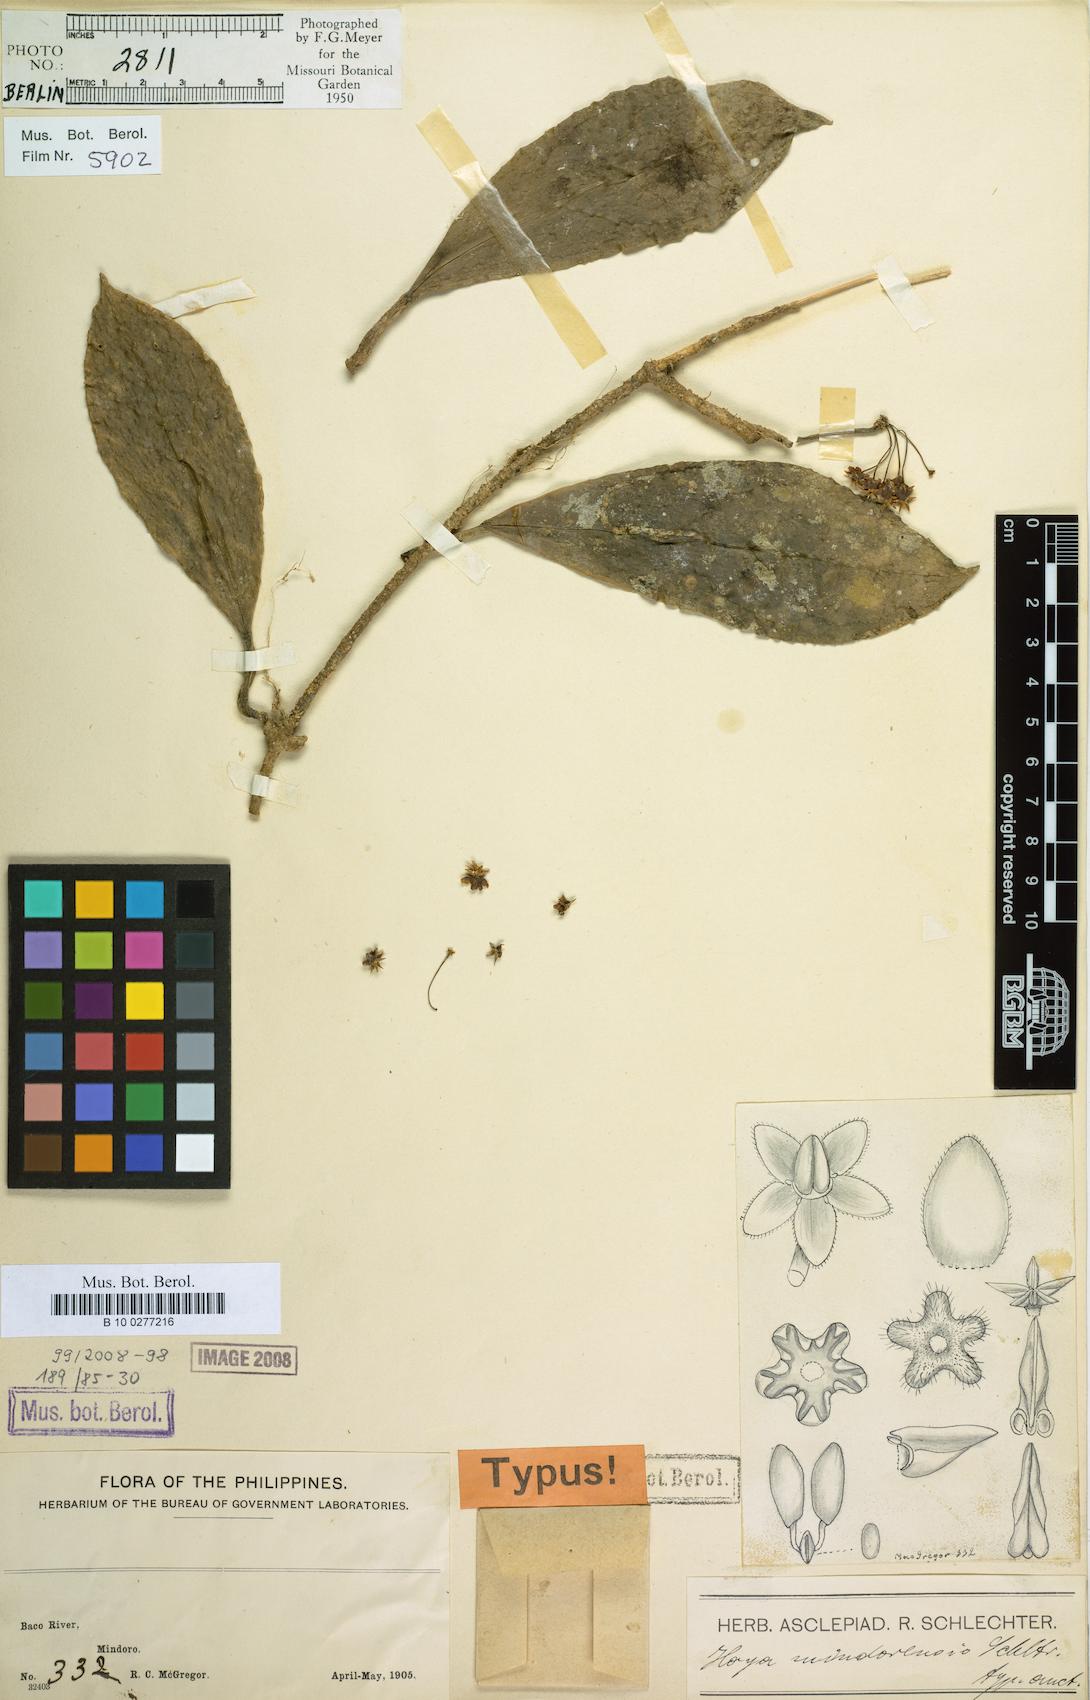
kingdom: Plantae
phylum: Tracheophyta
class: Magnoliopsida
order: Gentianales
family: Apocynaceae
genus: Hoya
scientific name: Hoya mindorensis
